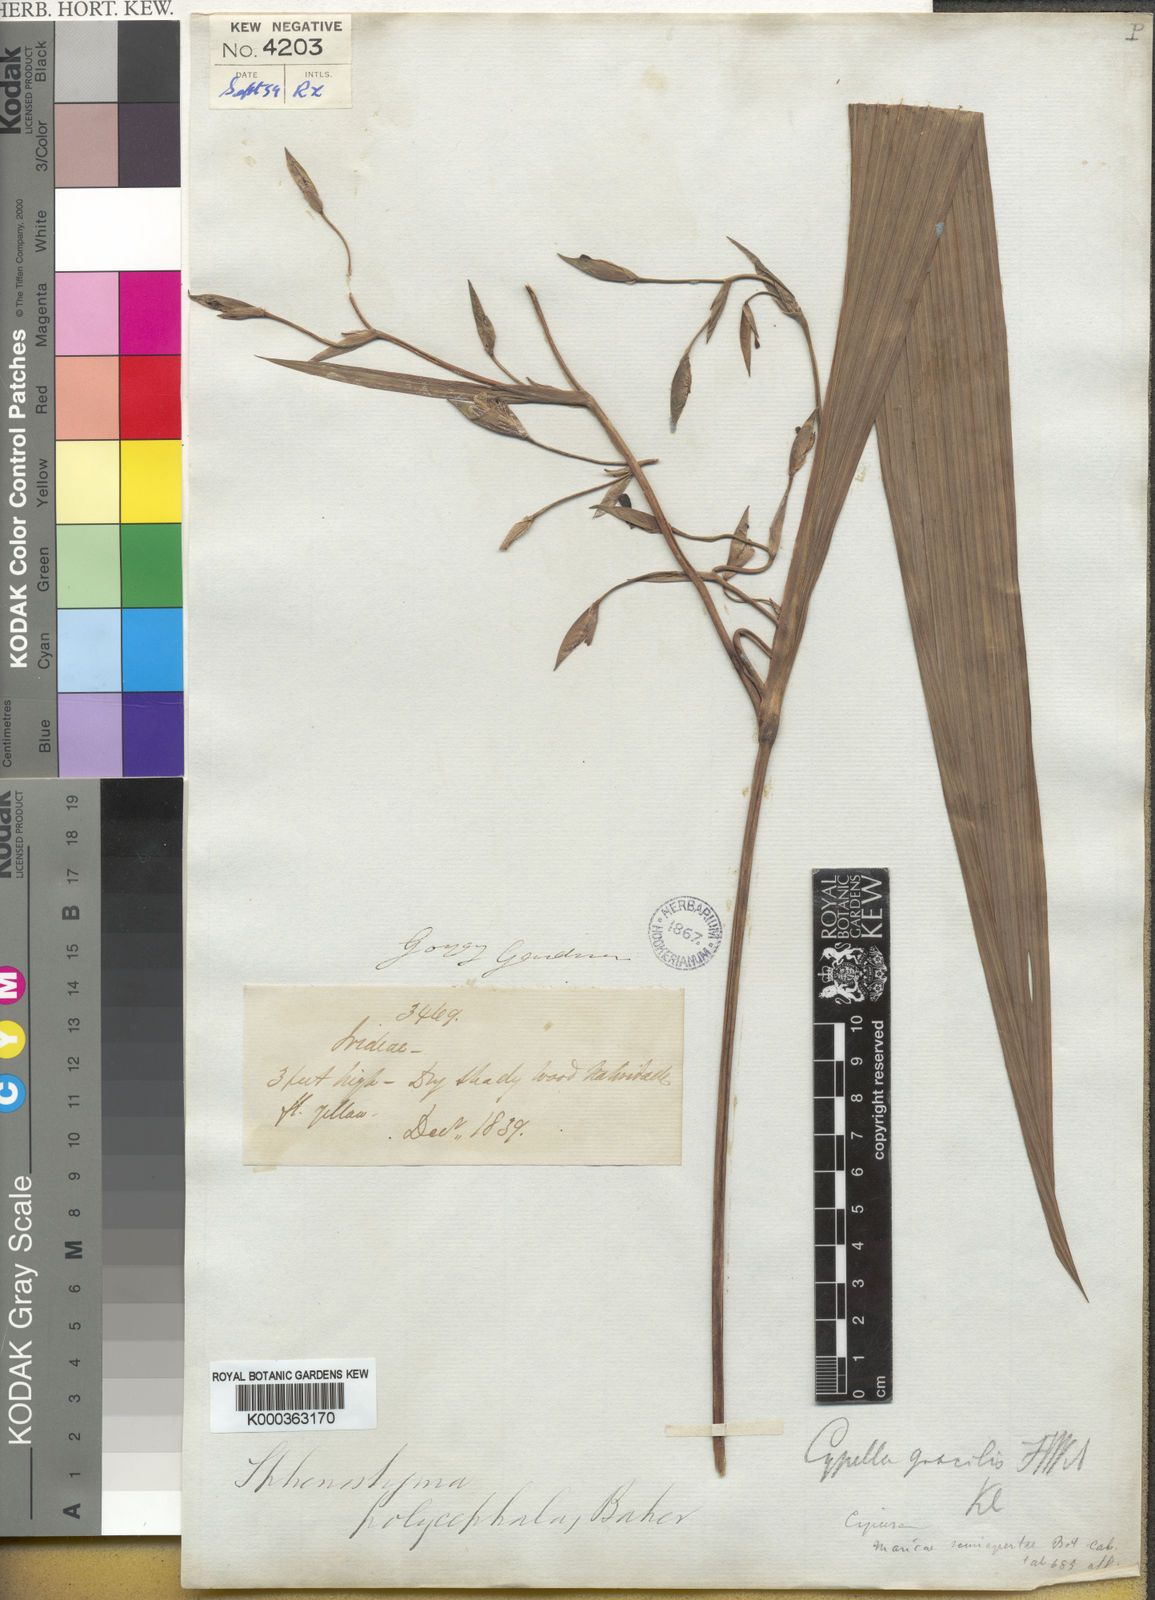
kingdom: Plantae
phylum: Tracheophyta
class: Liliopsida
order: Asparagales
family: Iridaceae
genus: Gelasine
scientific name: Gelasine Sphenostigma polycephalum
